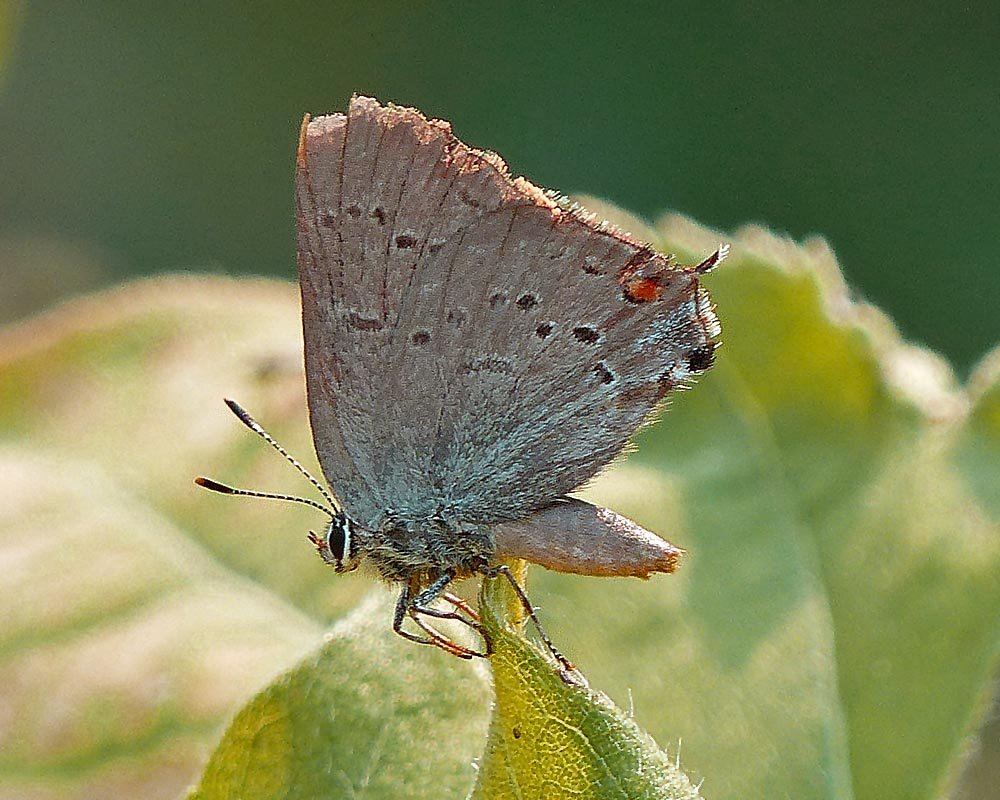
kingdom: Animalia
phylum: Arthropoda
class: Insecta
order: Lepidoptera
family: Lycaenidae
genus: Strymon
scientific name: Strymon sylvinus
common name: Sylvan Hairstreak
